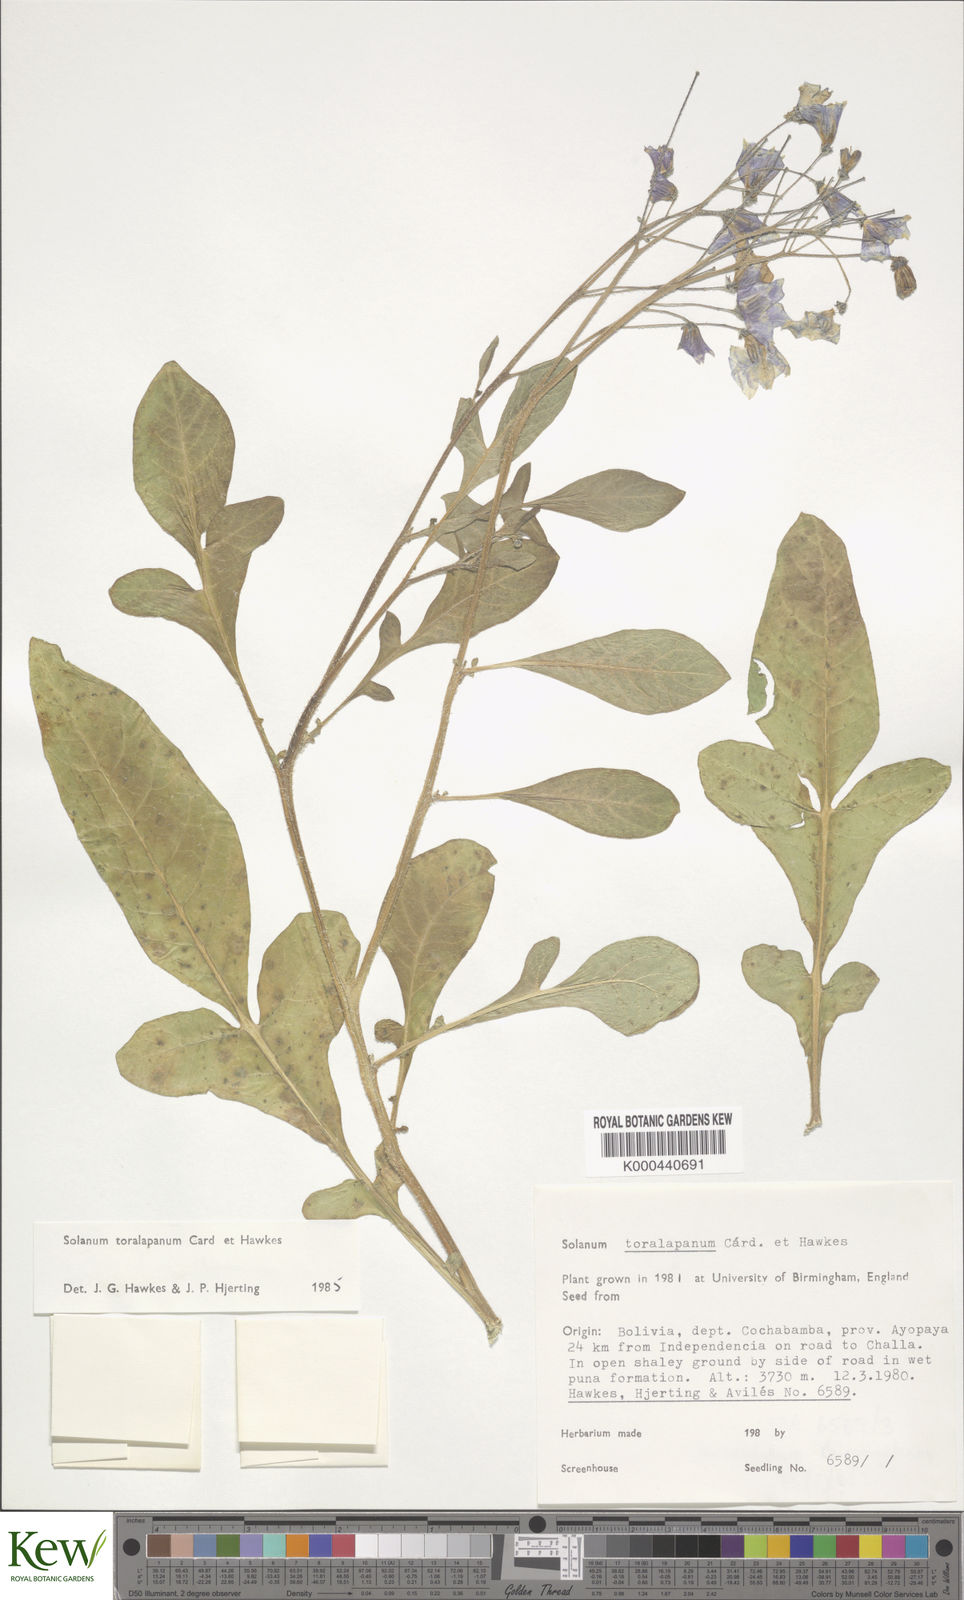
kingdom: Plantae
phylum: Tracheophyta
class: Magnoliopsida
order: Solanales
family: Solanaceae
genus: Solanum
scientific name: Solanum boliviense
